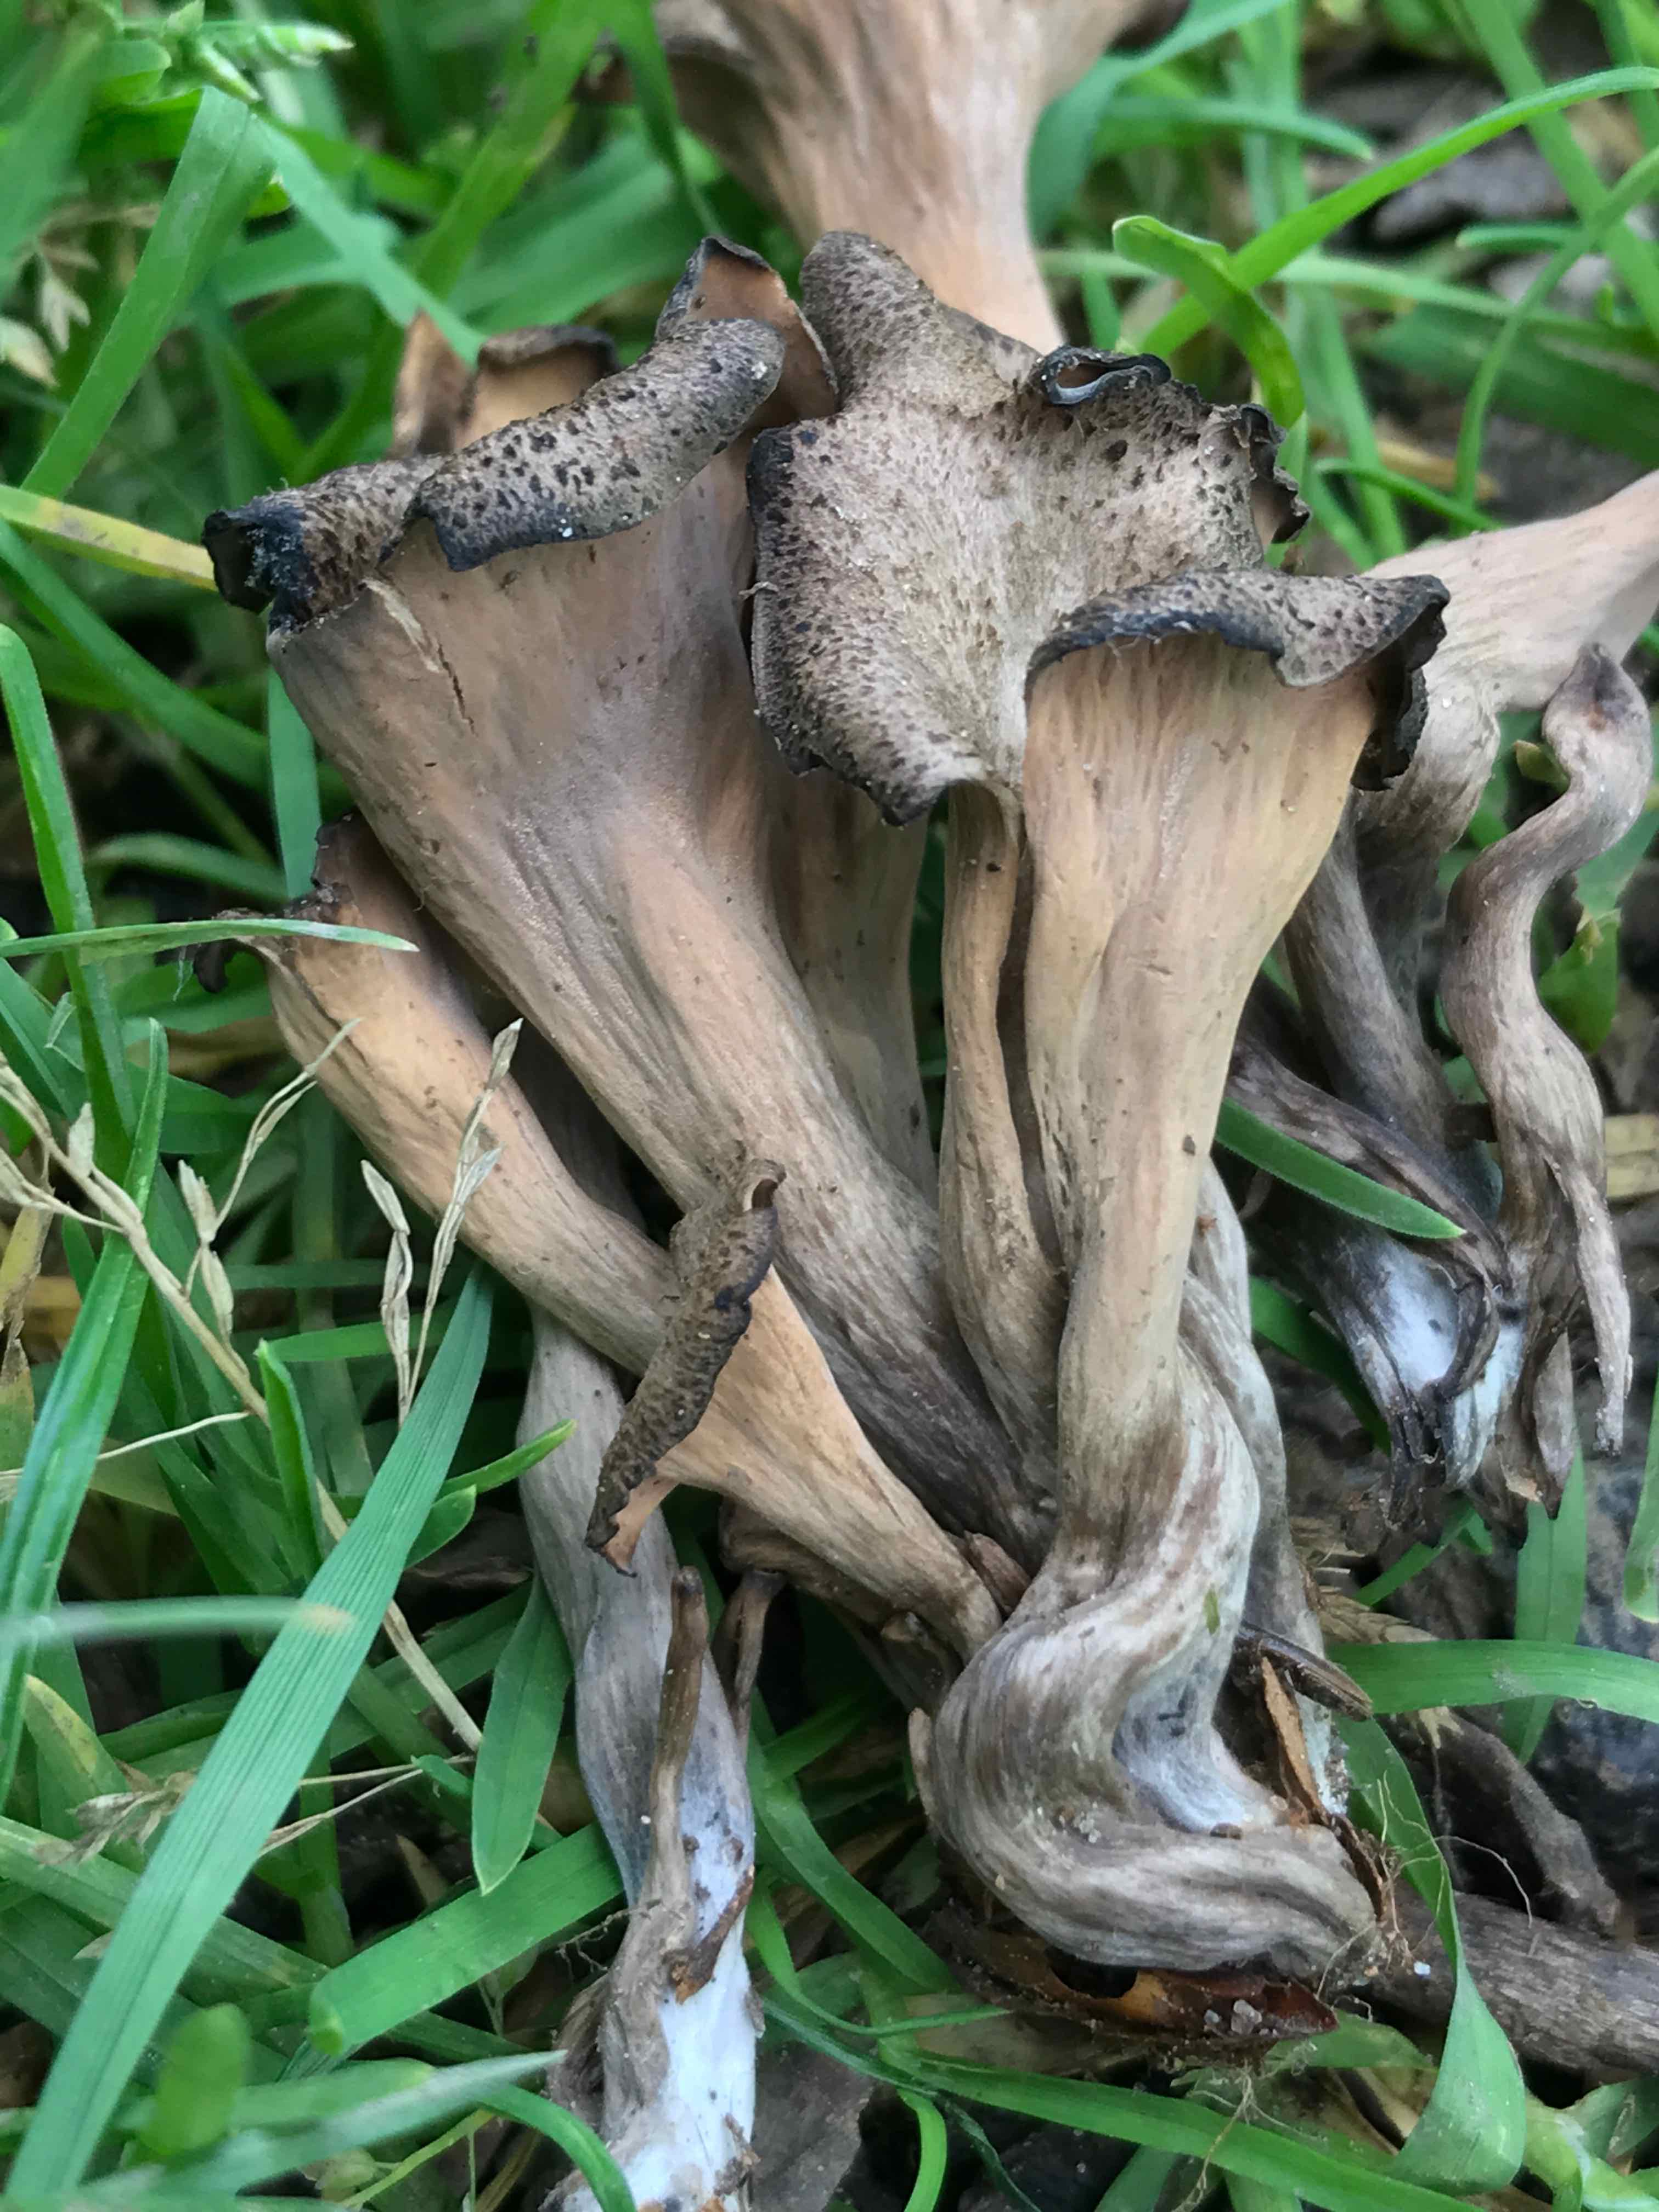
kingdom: Fungi
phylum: Basidiomycota
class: Agaricomycetes
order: Cantharellales
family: Hydnaceae
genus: Craterellus
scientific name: Craterellus cornucopioides
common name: trompetsvamp
